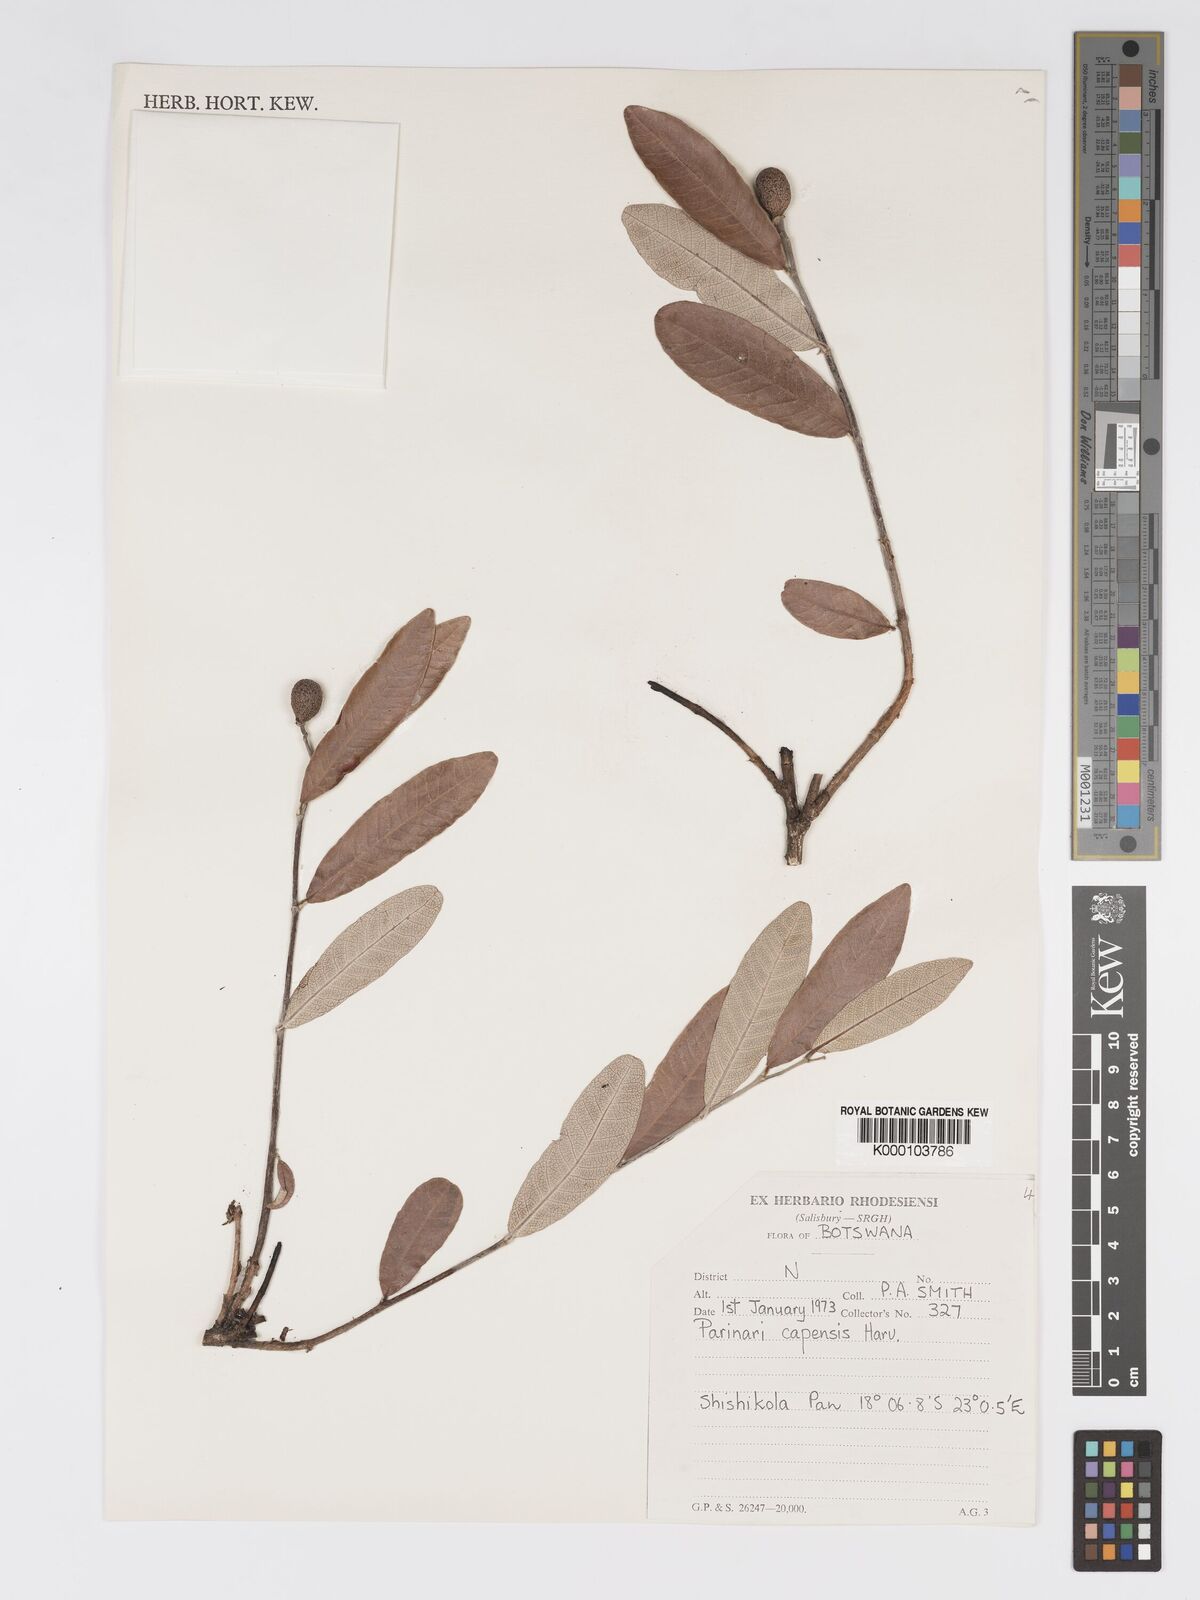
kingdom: Plantae
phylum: Tracheophyta
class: Magnoliopsida
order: Malpighiales
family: Chrysobalanaceae
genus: Parinari
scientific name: Parinari capensis
